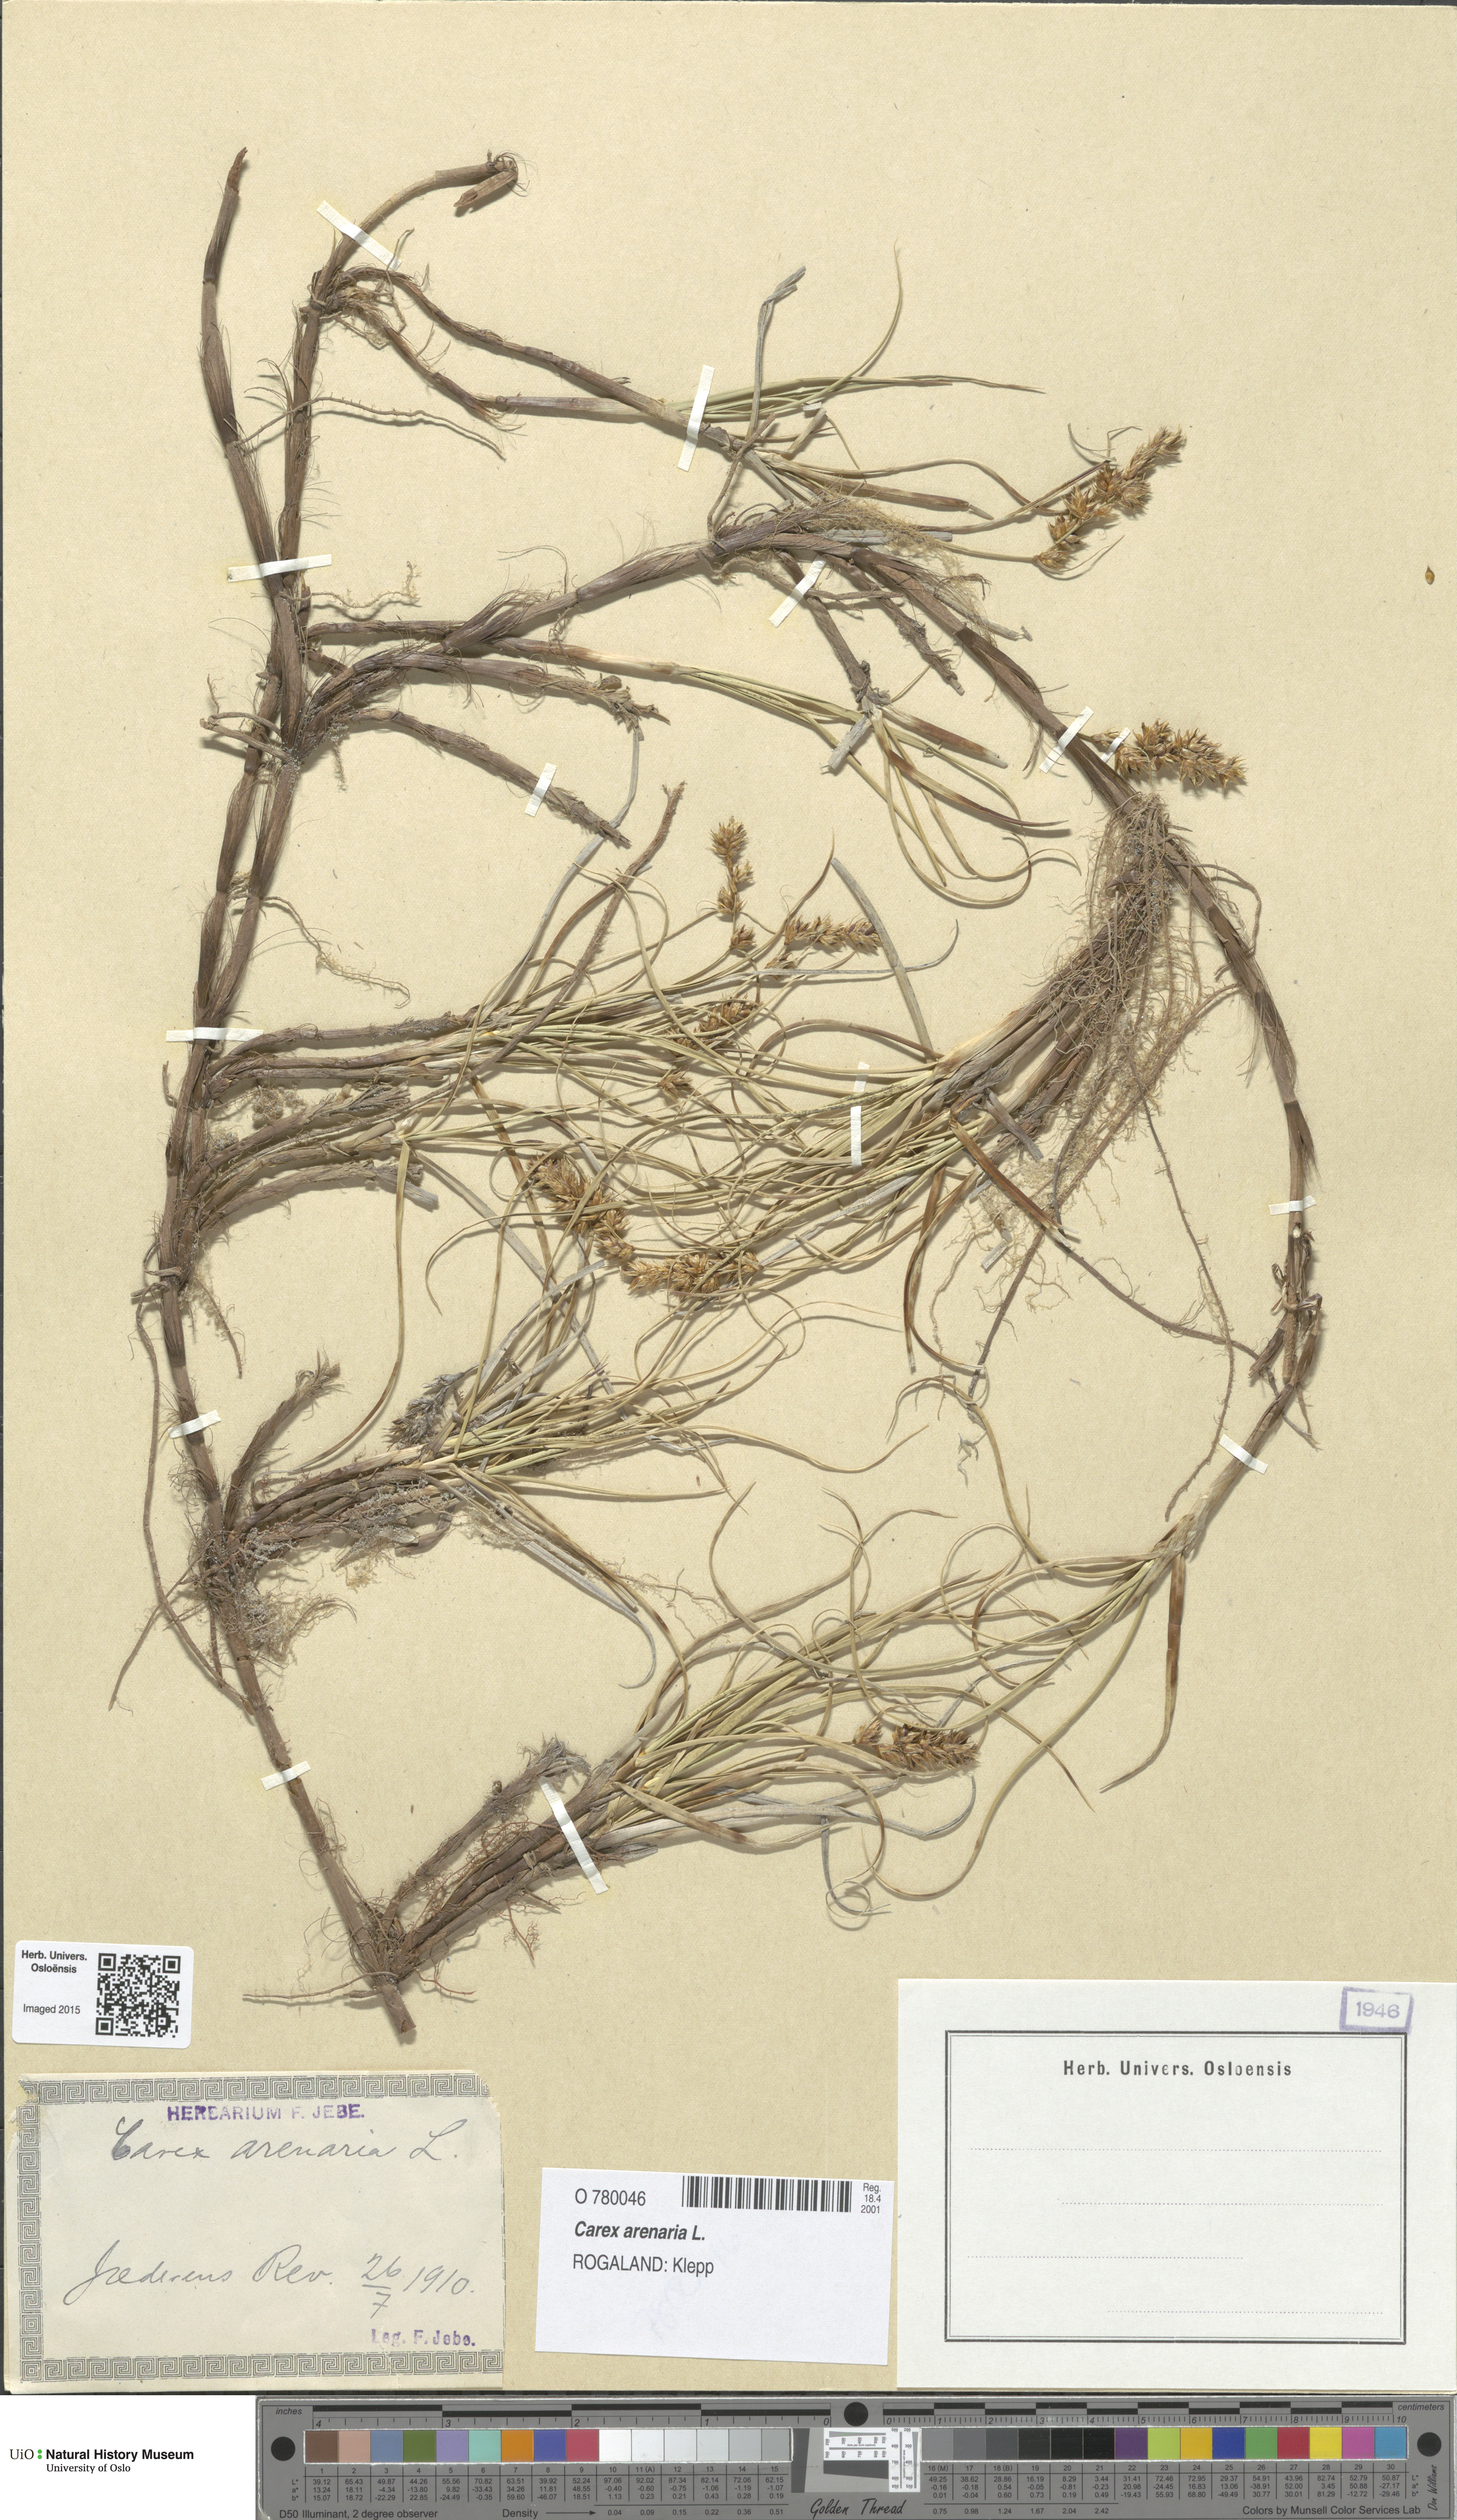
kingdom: Plantae
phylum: Tracheophyta
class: Liliopsida
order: Poales
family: Cyperaceae
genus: Carex
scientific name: Carex arenaria
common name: Sand sedge
